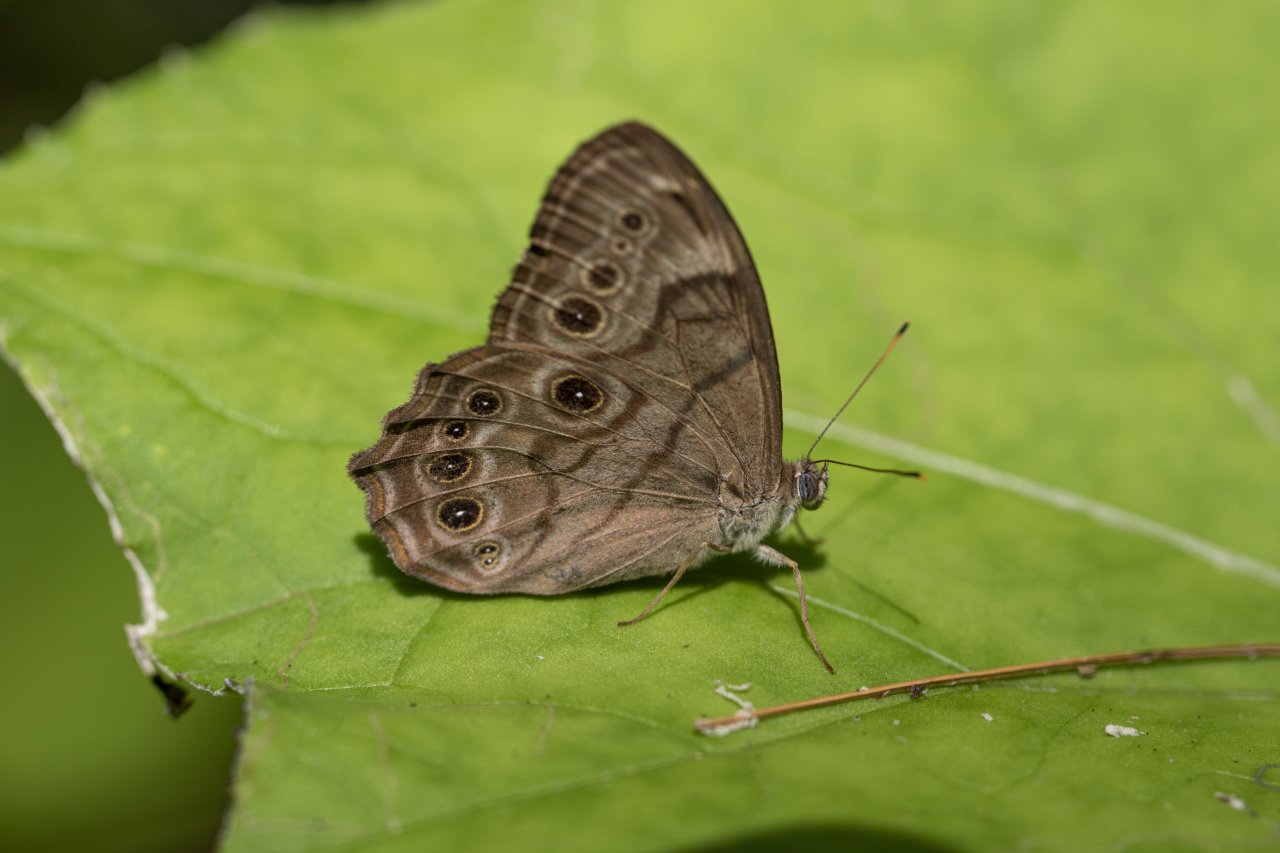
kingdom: Animalia
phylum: Arthropoda
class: Insecta
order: Lepidoptera
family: Nymphalidae
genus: Lethe
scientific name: Lethe anthedon
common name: Northern Pearly-Eye
